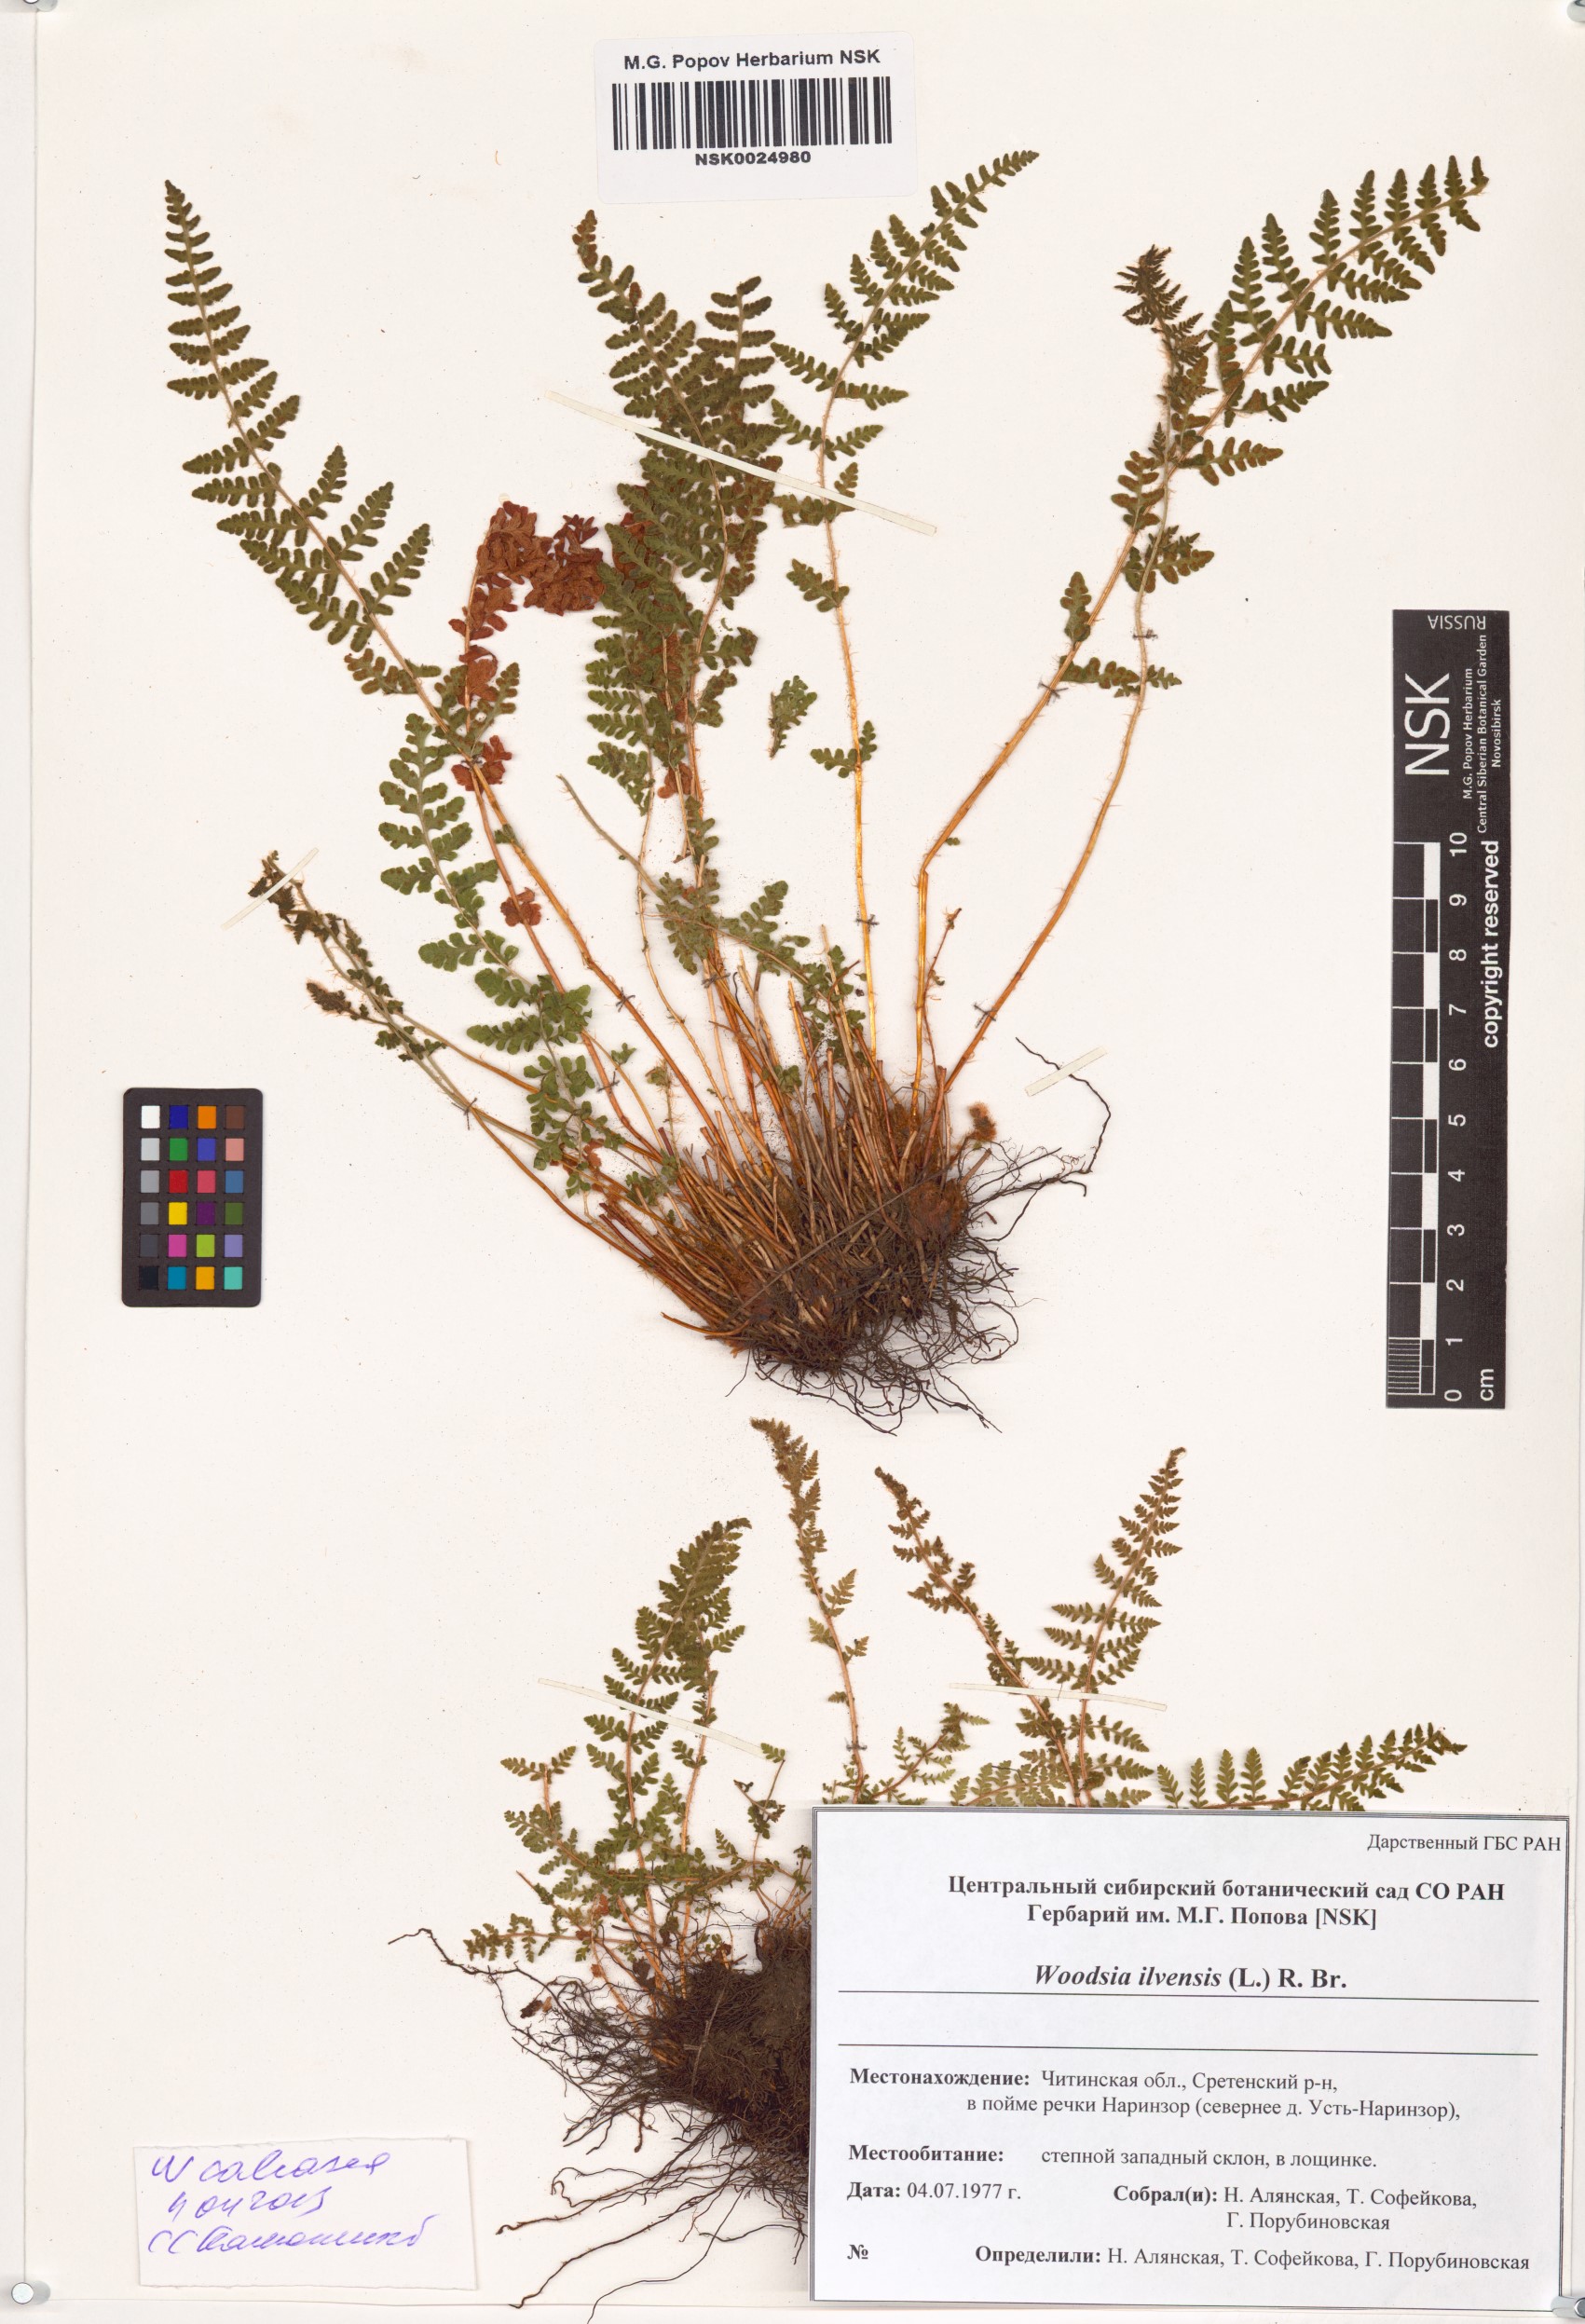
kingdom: Plantae
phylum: Tracheophyta
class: Polypodiopsida
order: Polypodiales
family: Woodsiaceae
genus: Woodsia
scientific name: Woodsia calcarea
